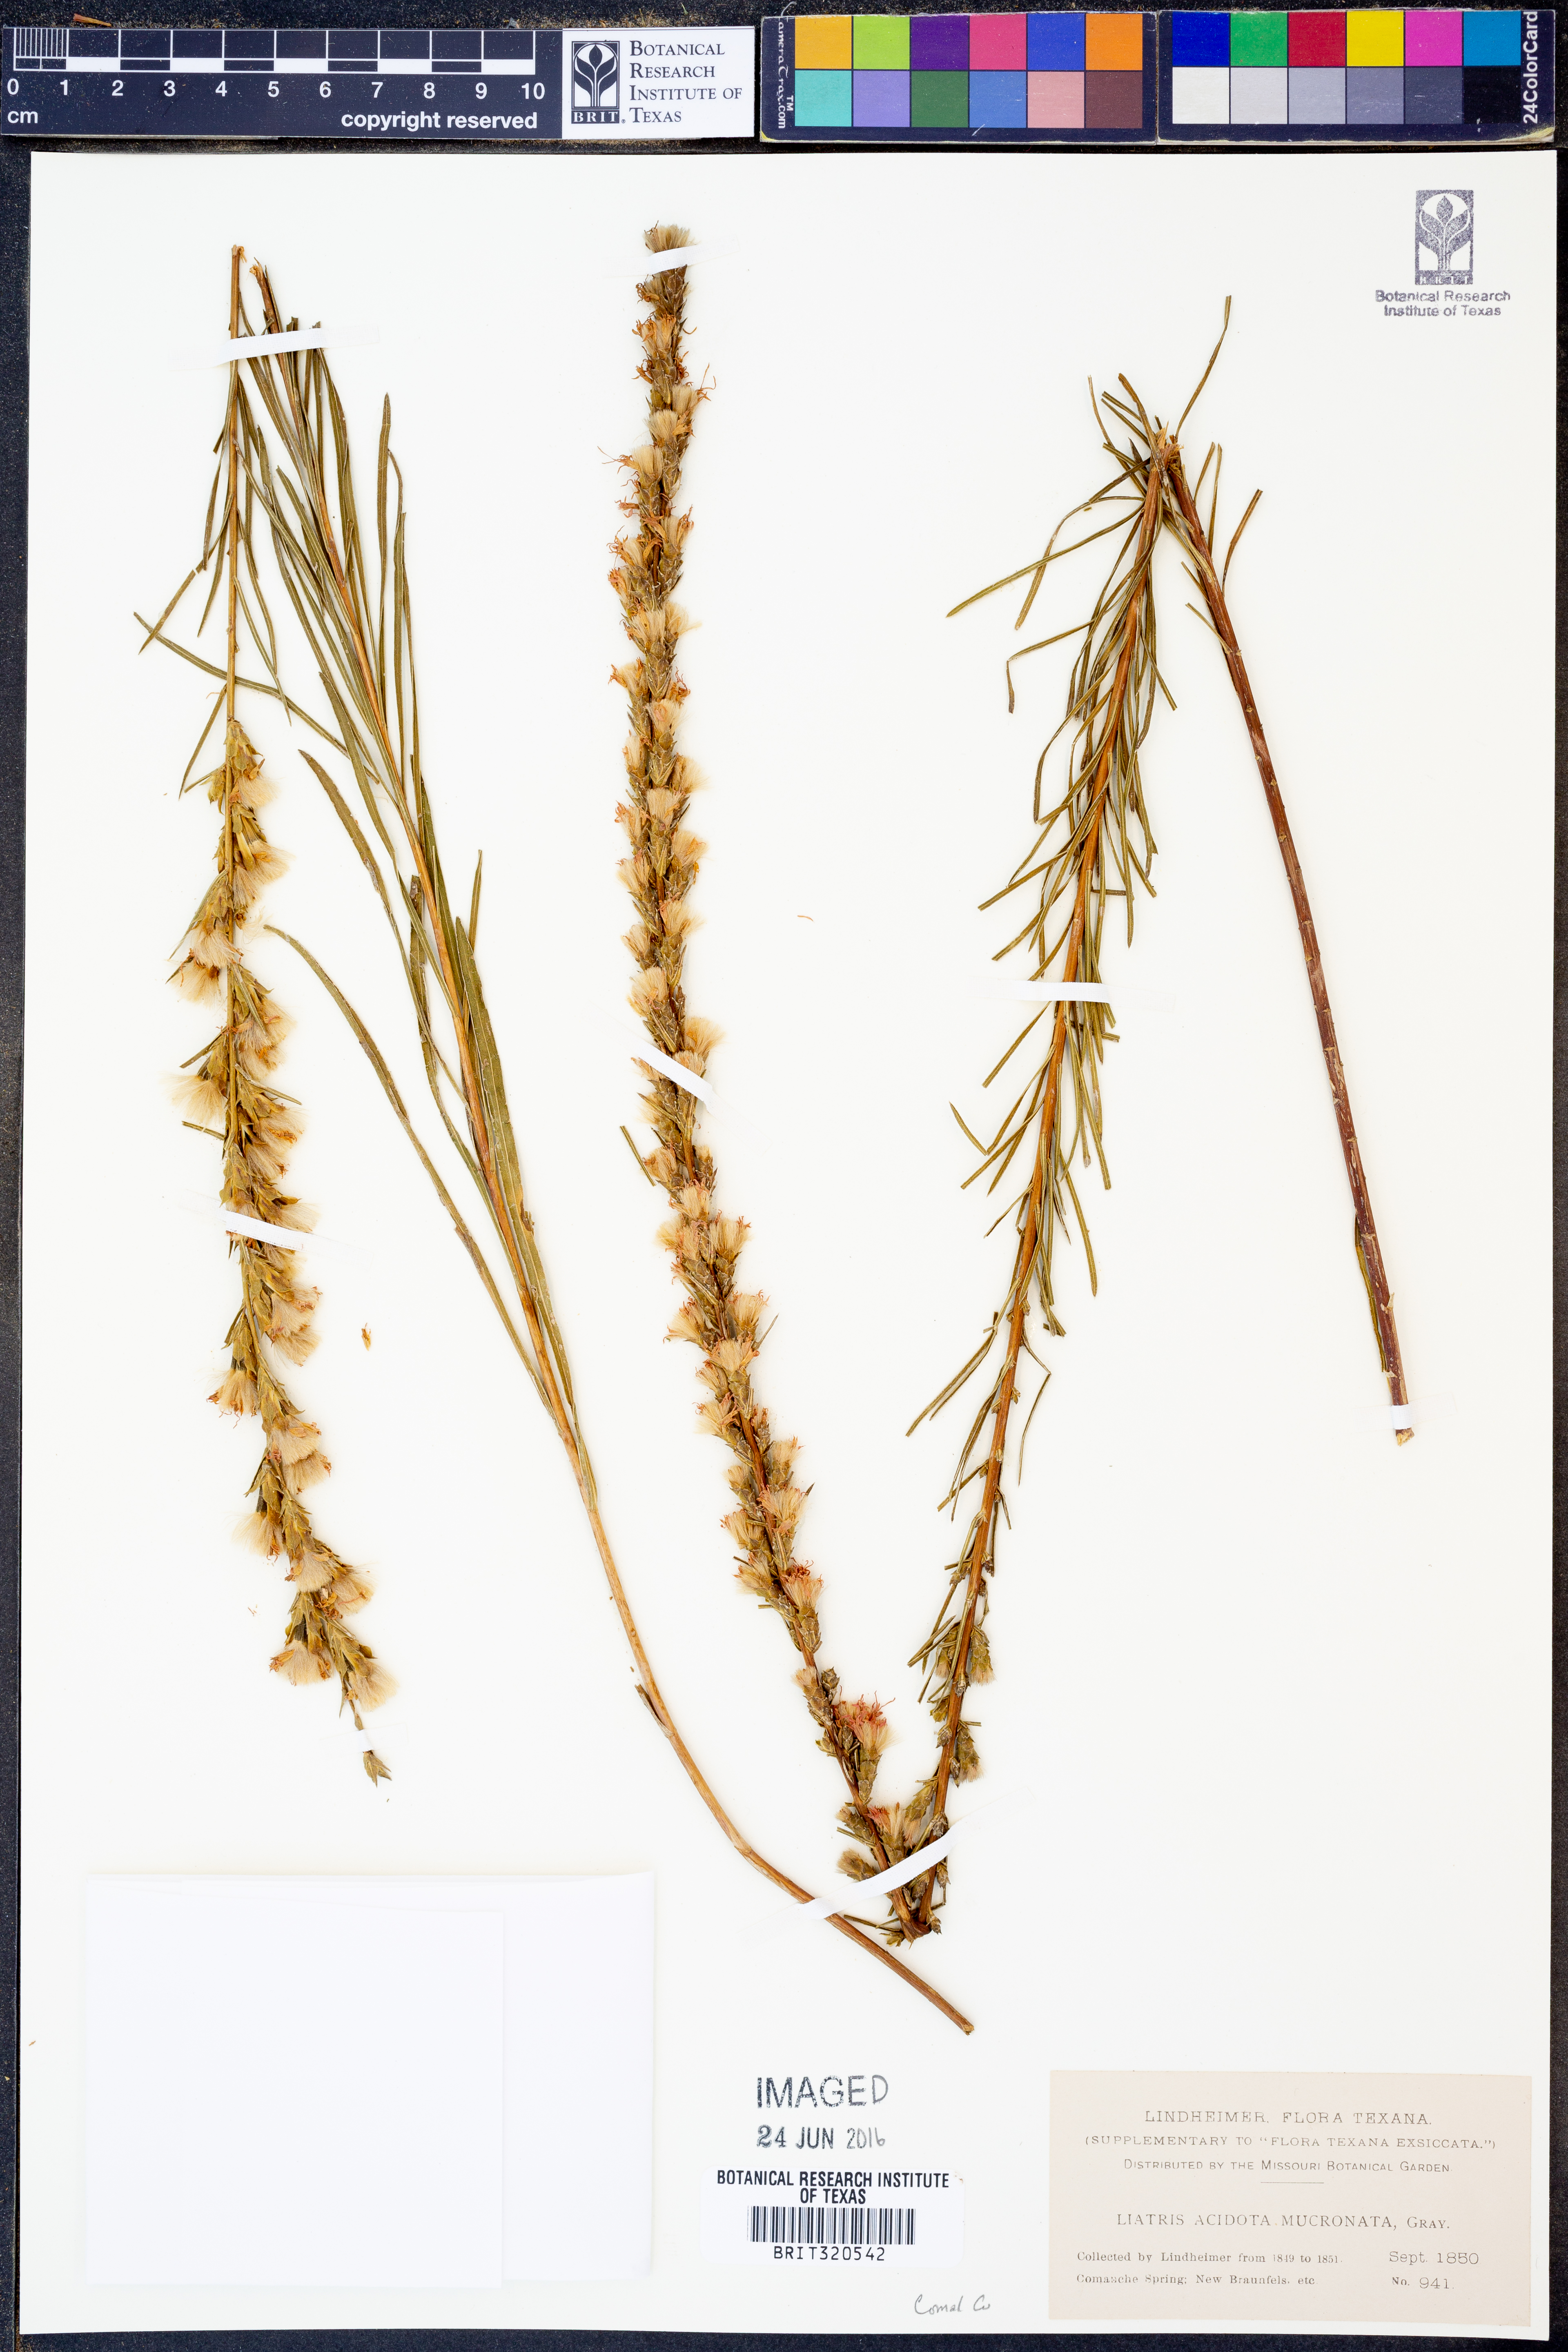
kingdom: Plantae
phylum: Tracheophyta
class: Magnoliopsida
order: Asterales
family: Asteraceae
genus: Liatris
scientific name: Liatris acidota
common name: Gulf coast gayfeather
